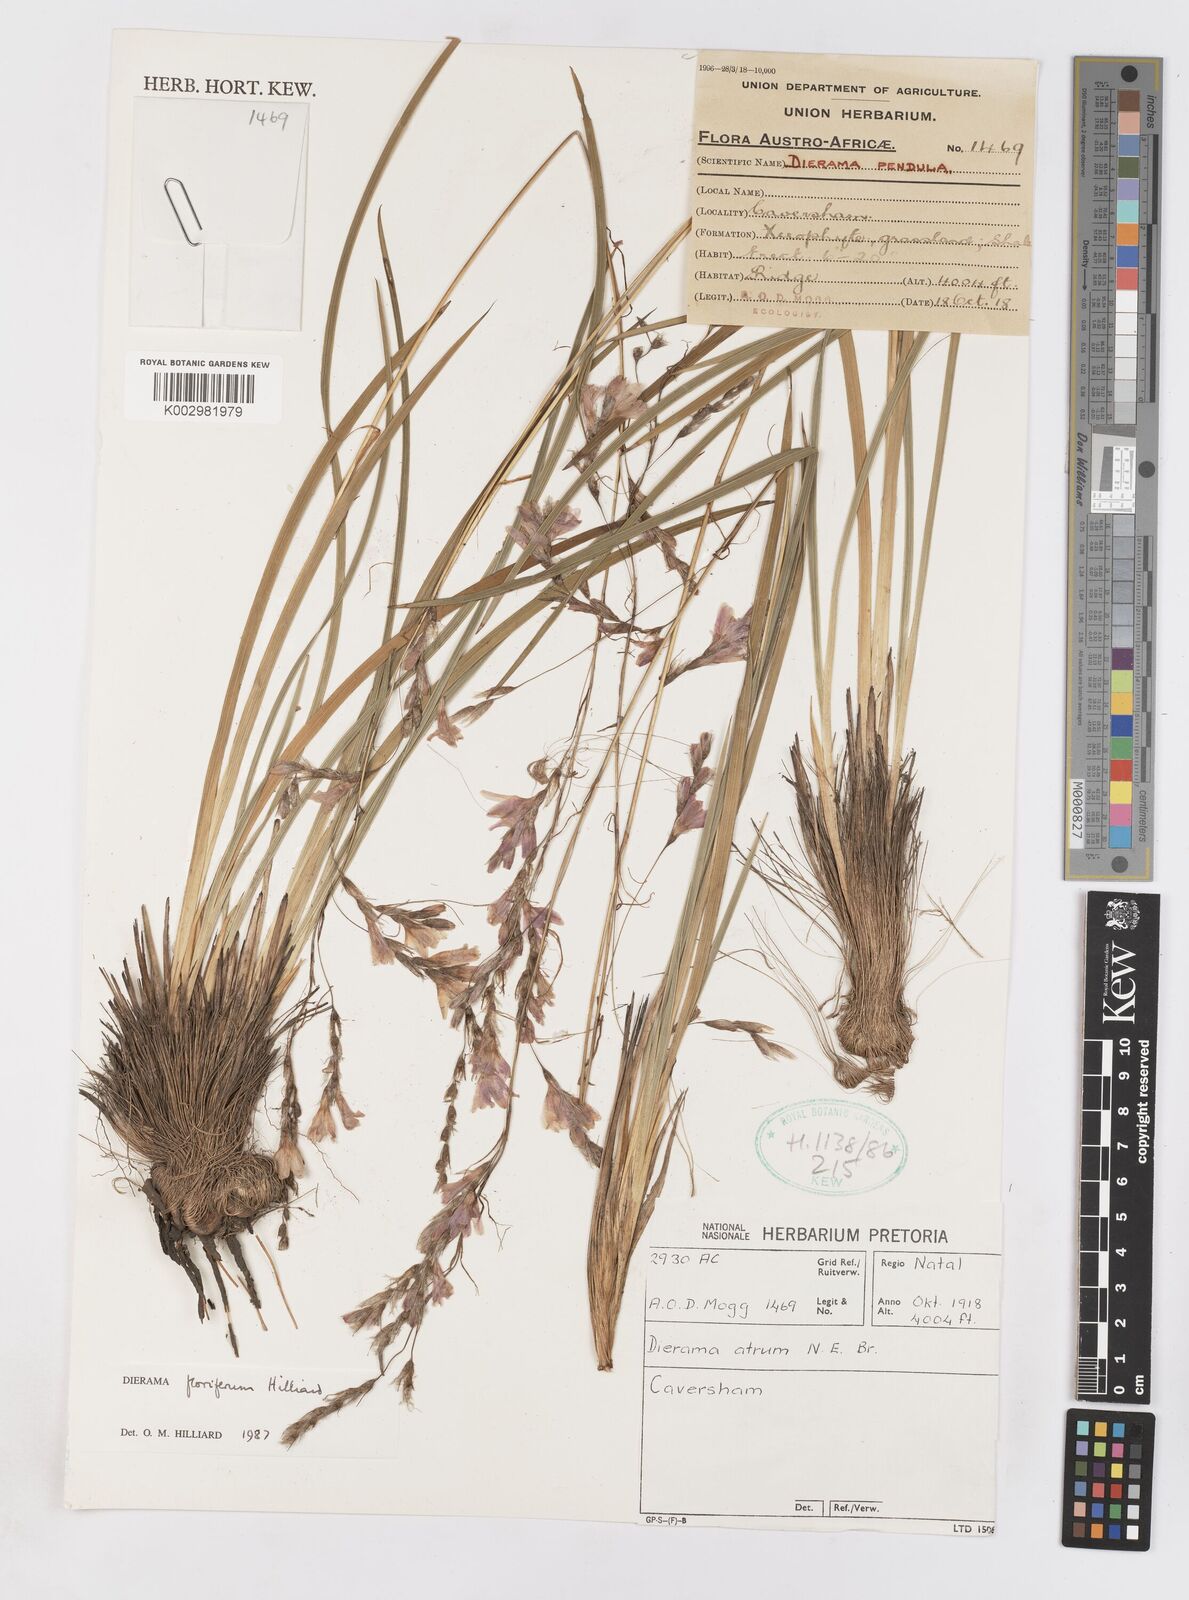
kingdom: Plantae
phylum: Tracheophyta
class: Liliopsida
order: Asparagales
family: Iridaceae
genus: Dierama
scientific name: Dierama floriferum
